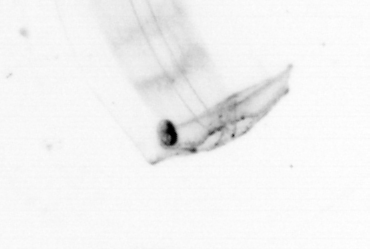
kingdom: Animalia
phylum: Chaetognatha
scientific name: Chaetognatha
